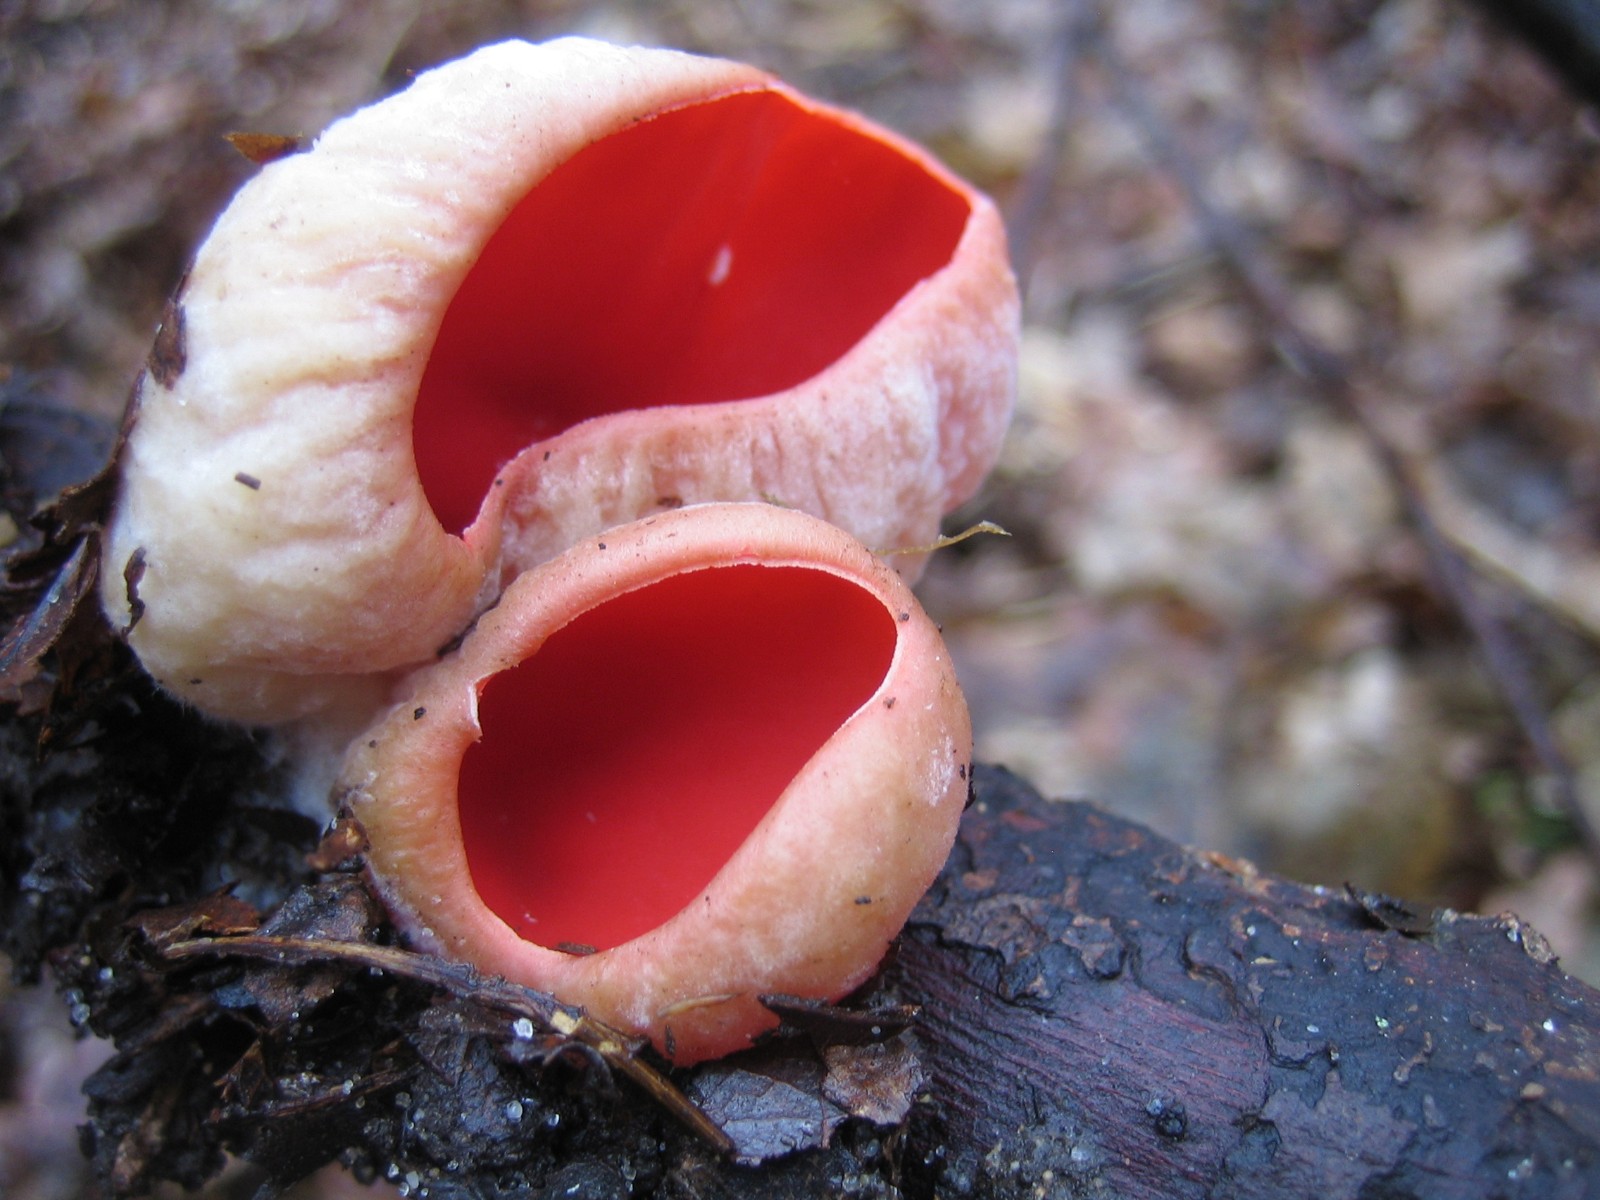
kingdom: Fungi
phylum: Ascomycota
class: Pezizomycetes
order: Pezizales
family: Sarcoscyphaceae
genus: Sarcoscypha
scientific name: Sarcoscypha austriaca
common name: krølhåret pragtbæger
